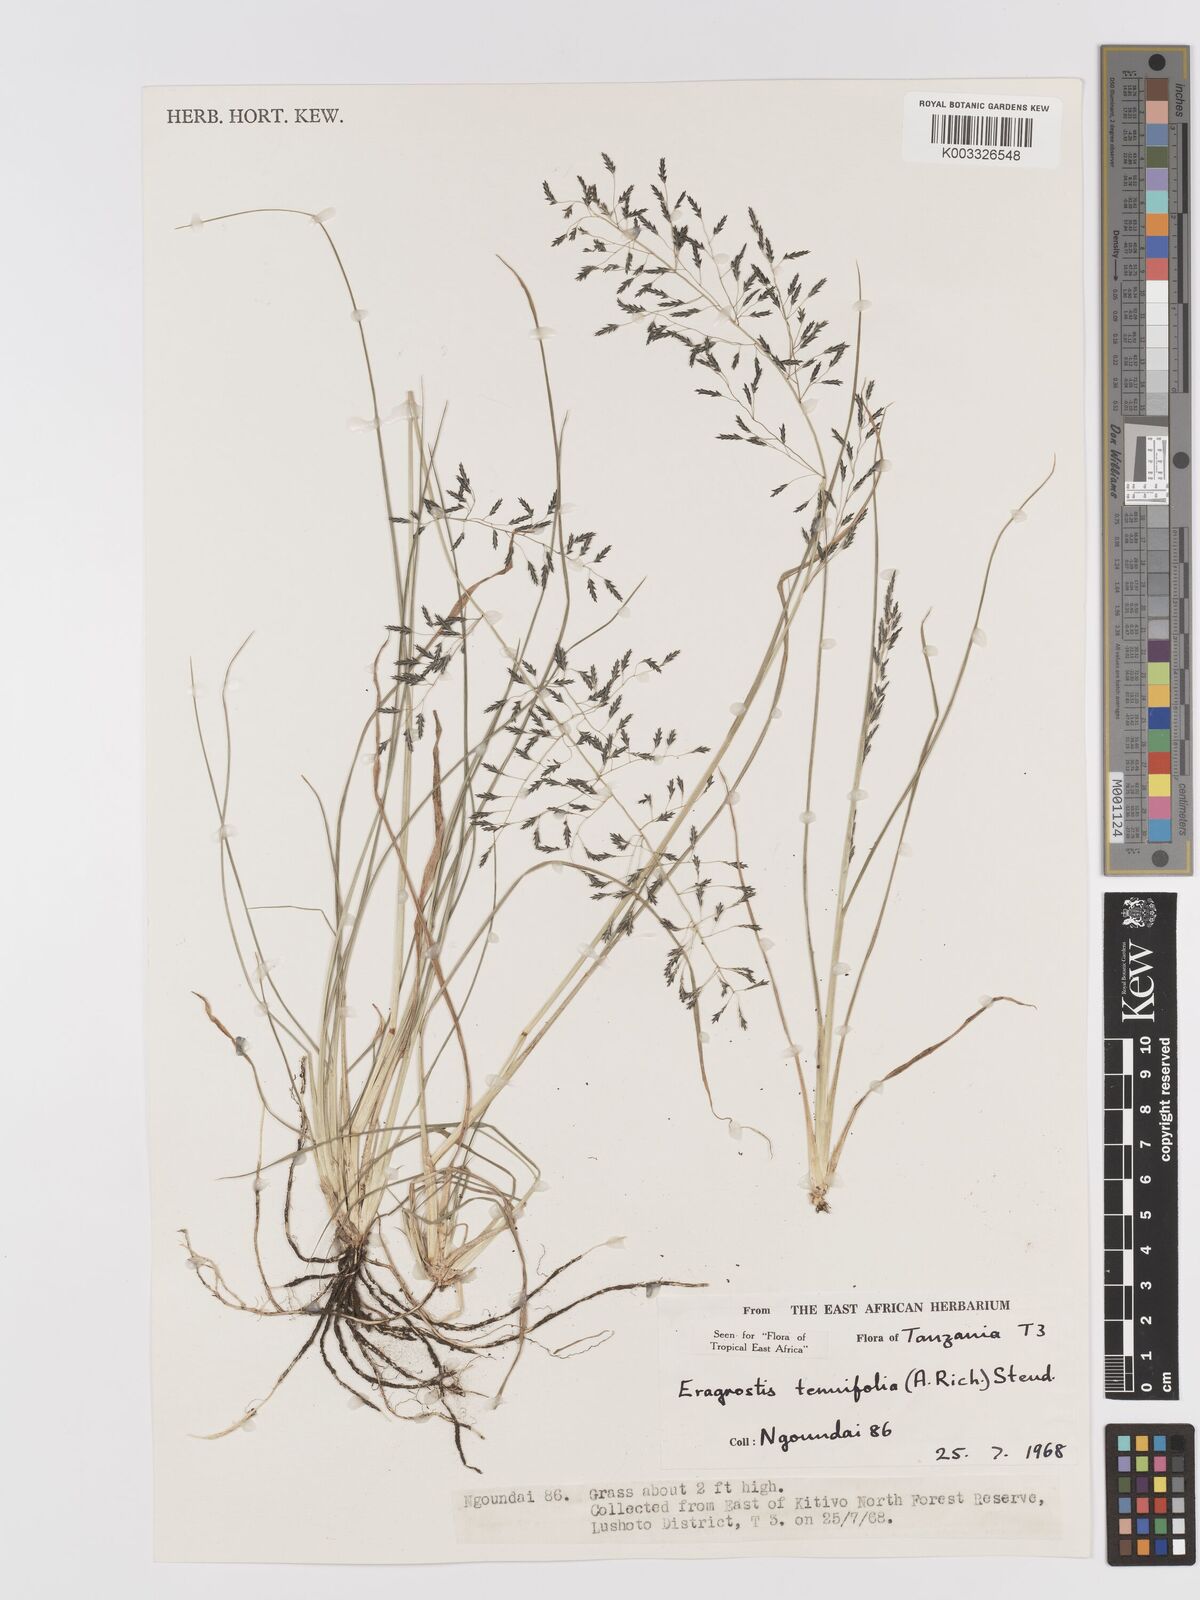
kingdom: Plantae
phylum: Tracheophyta
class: Liliopsida
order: Poales
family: Poaceae
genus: Eragrostis
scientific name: Eragrostis tenuifolia
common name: Elastic grass
